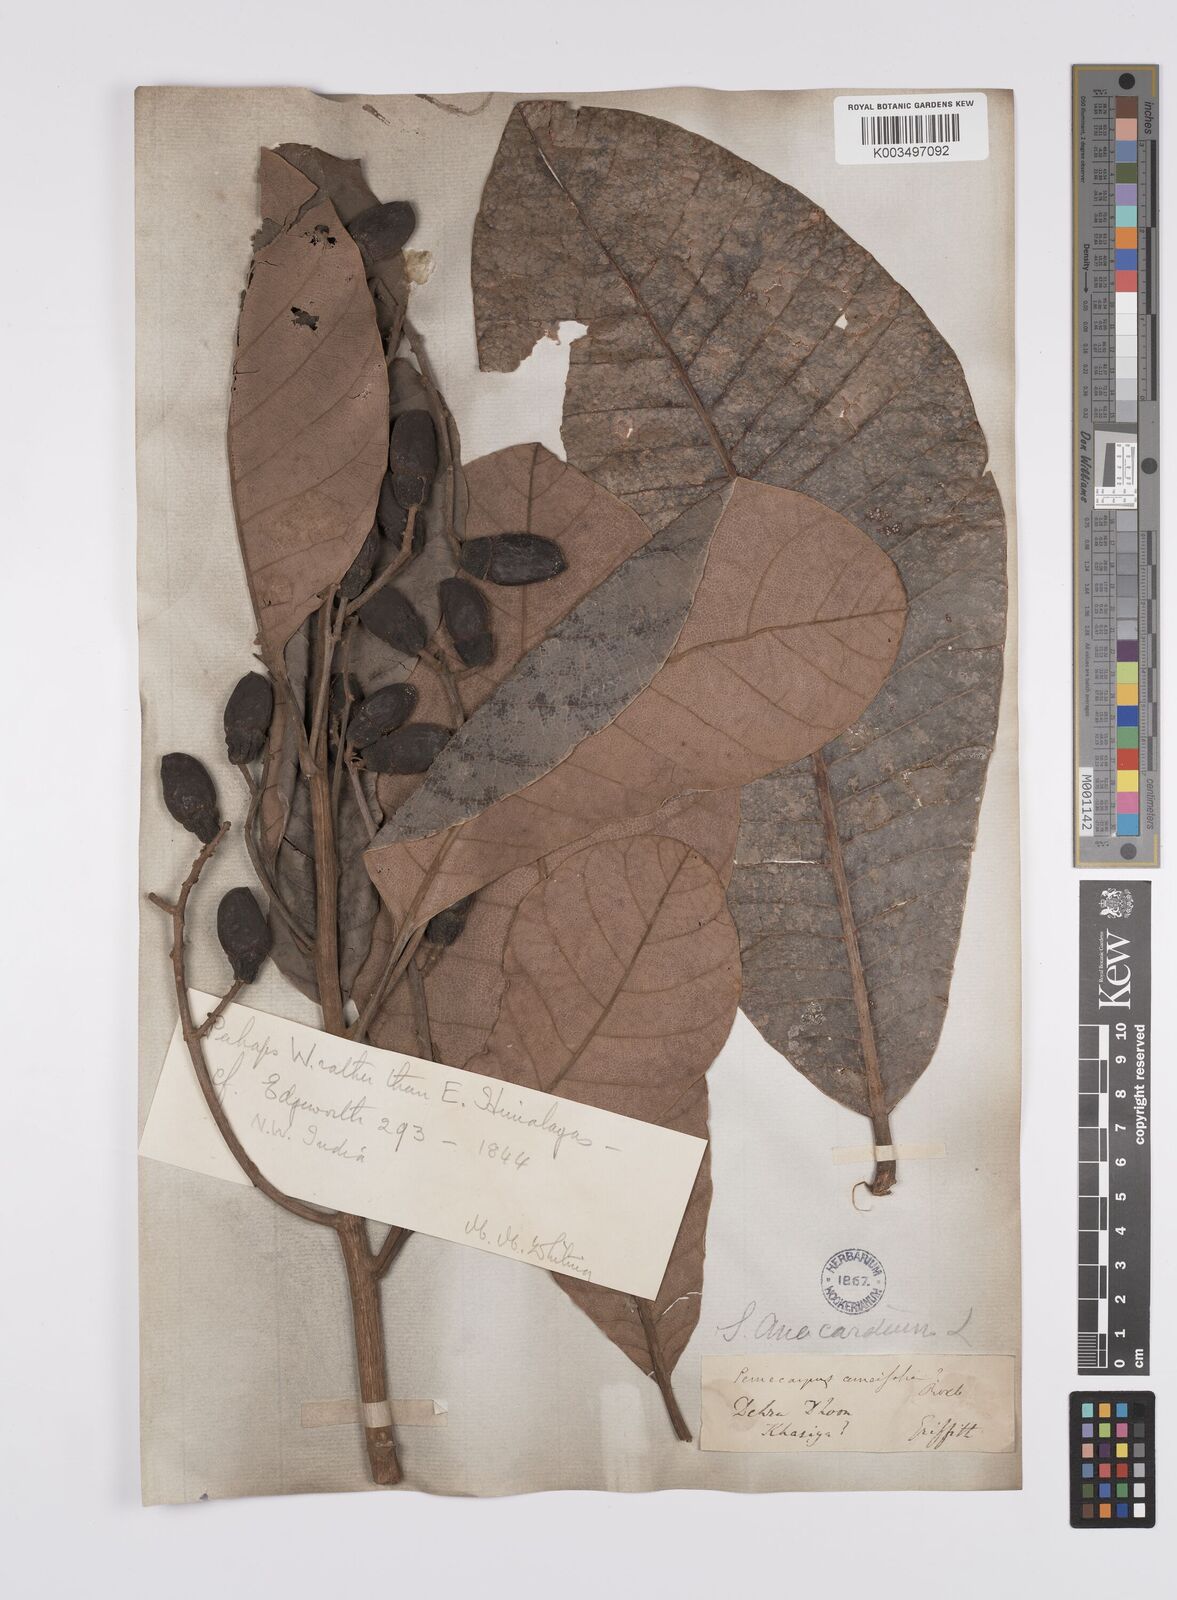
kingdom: Plantae
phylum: Tracheophyta
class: Magnoliopsida
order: Sapindales
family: Anacardiaceae
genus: Semecarpus
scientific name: Semecarpus anacardium
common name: Marking nut-tree
